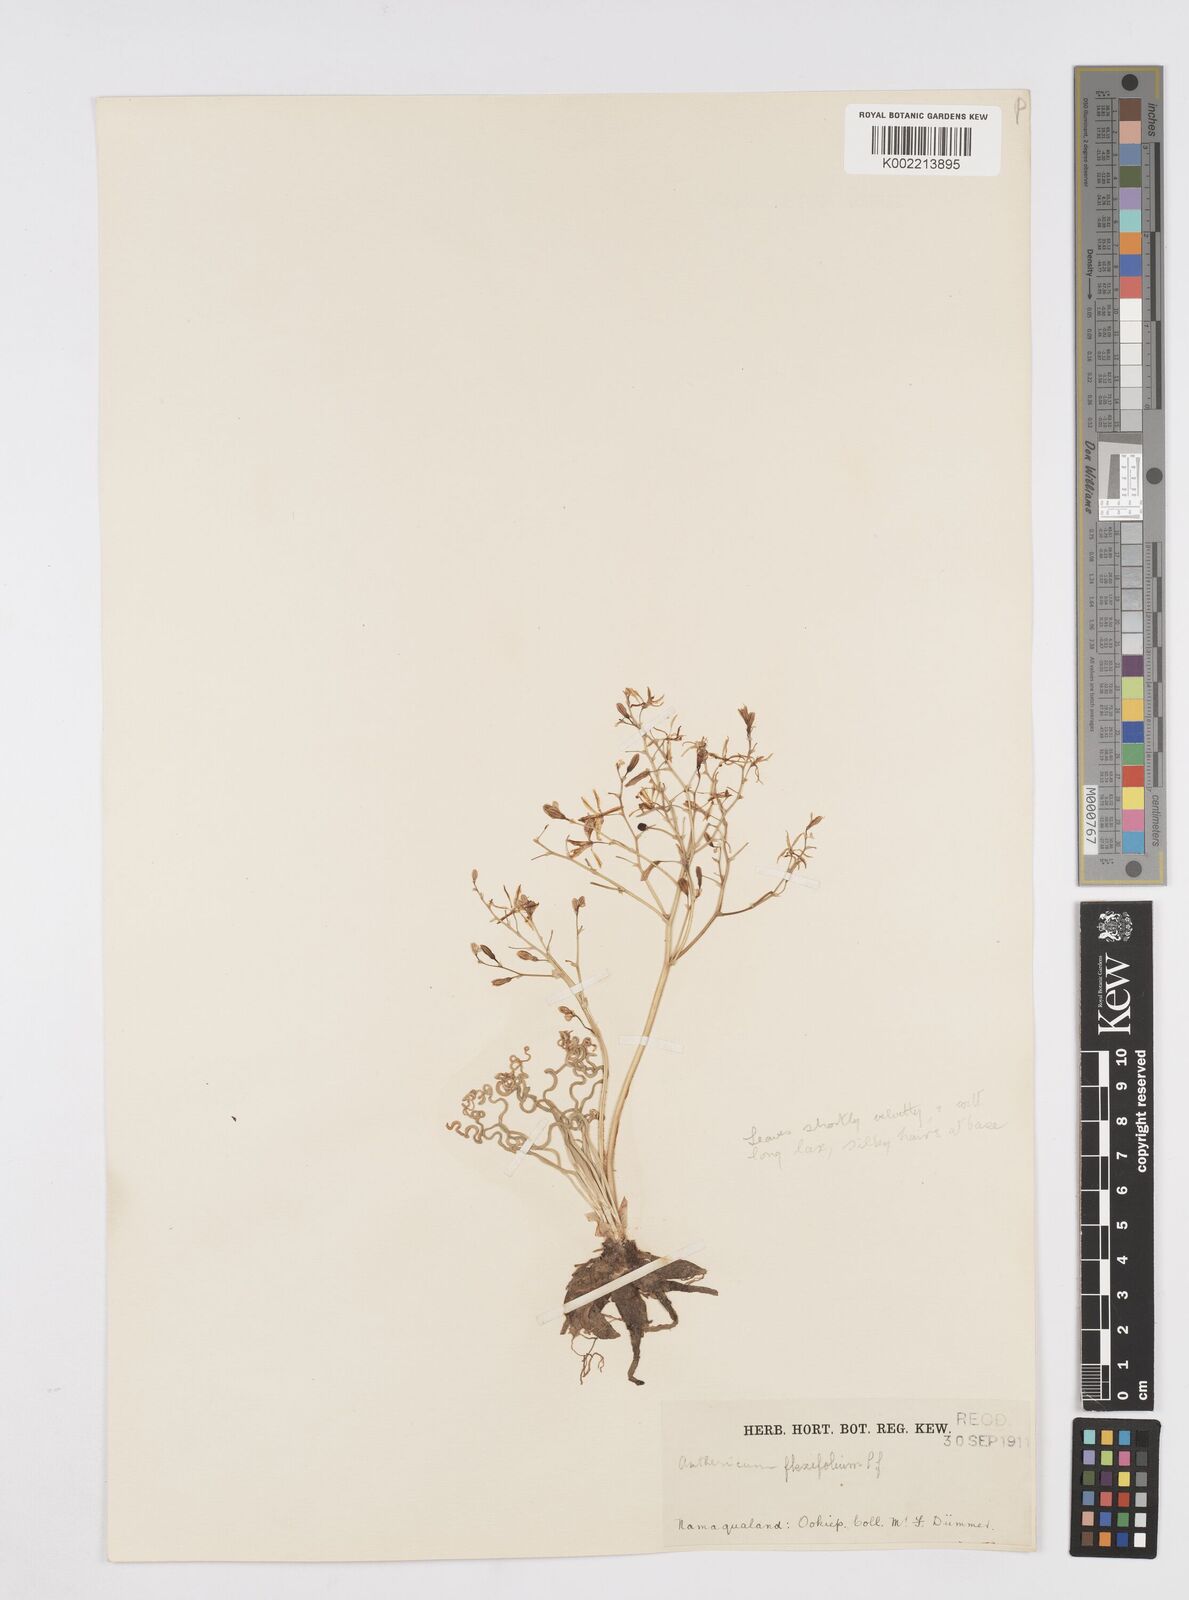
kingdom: Plantae
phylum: Tracheophyta
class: Liliopsida
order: Asparagales
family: Asphodelaceae
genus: Trachyandra
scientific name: Trachyandra flexifolia
